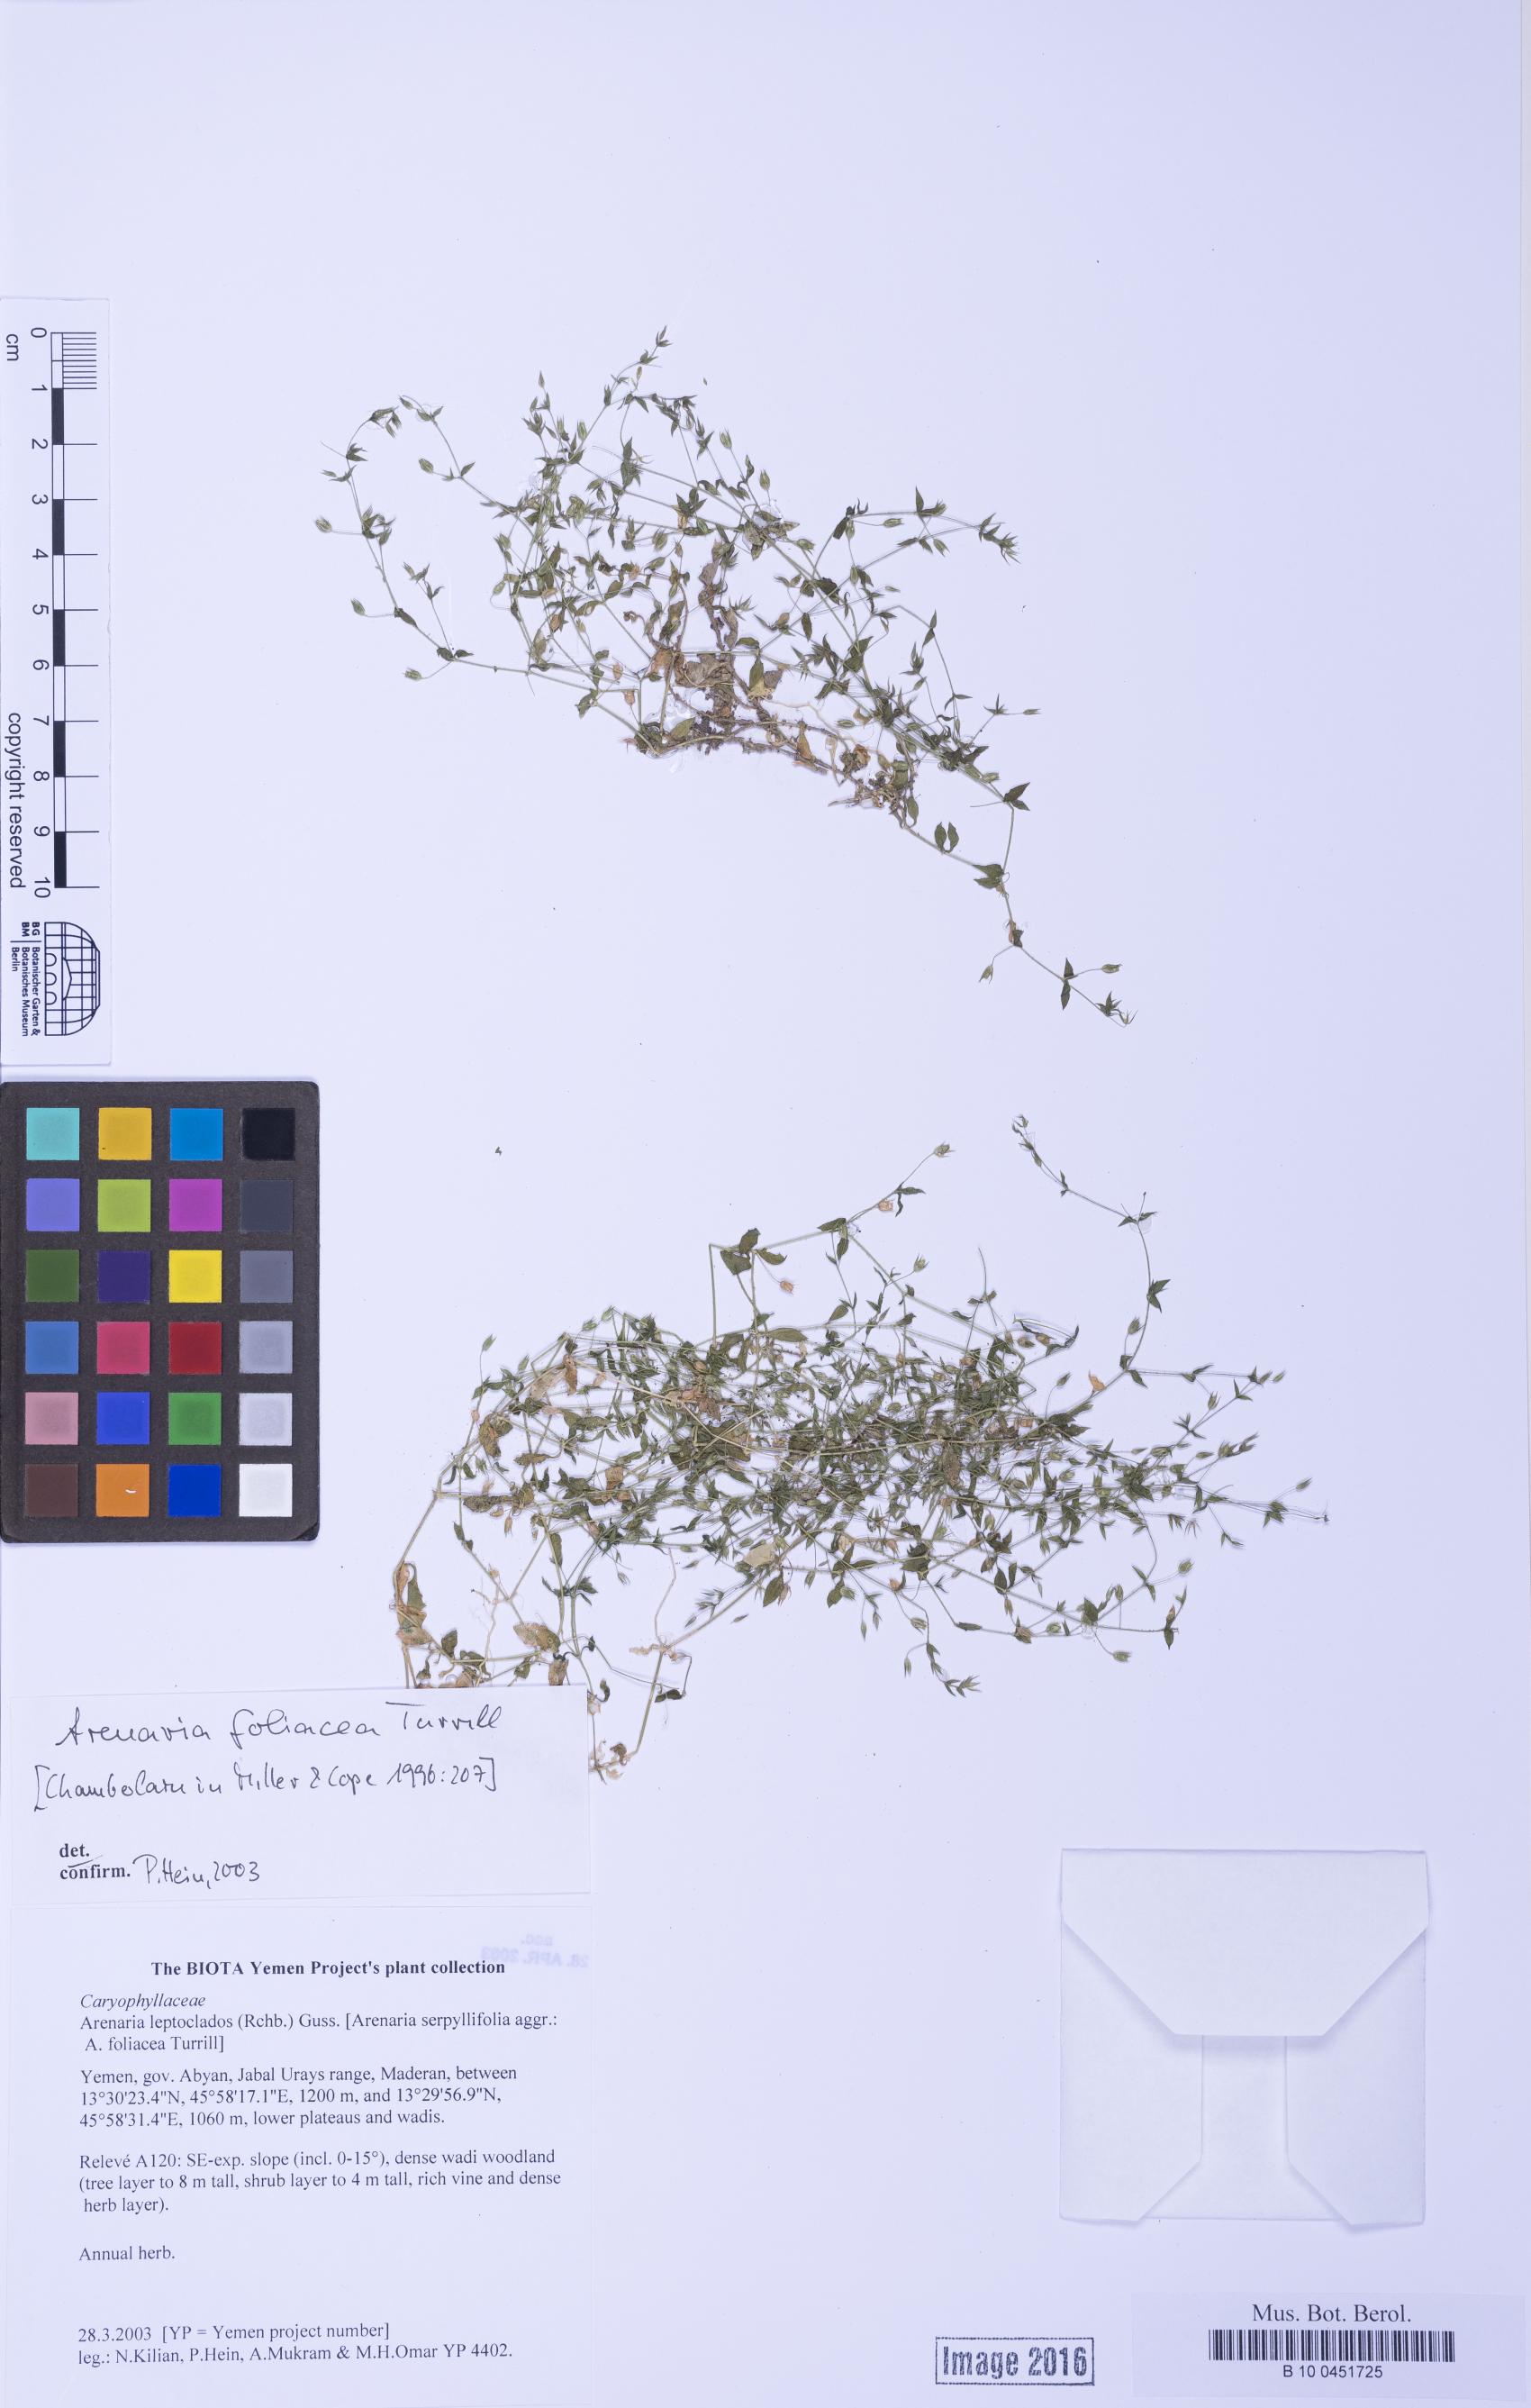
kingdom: Plantae
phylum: Tracheophyta
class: Magnoliopsida
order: Caryophyllales
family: Caryophyllaceae
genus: Arenaria
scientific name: Arenaria leptoclados
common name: Thyme-leaved sandwort
